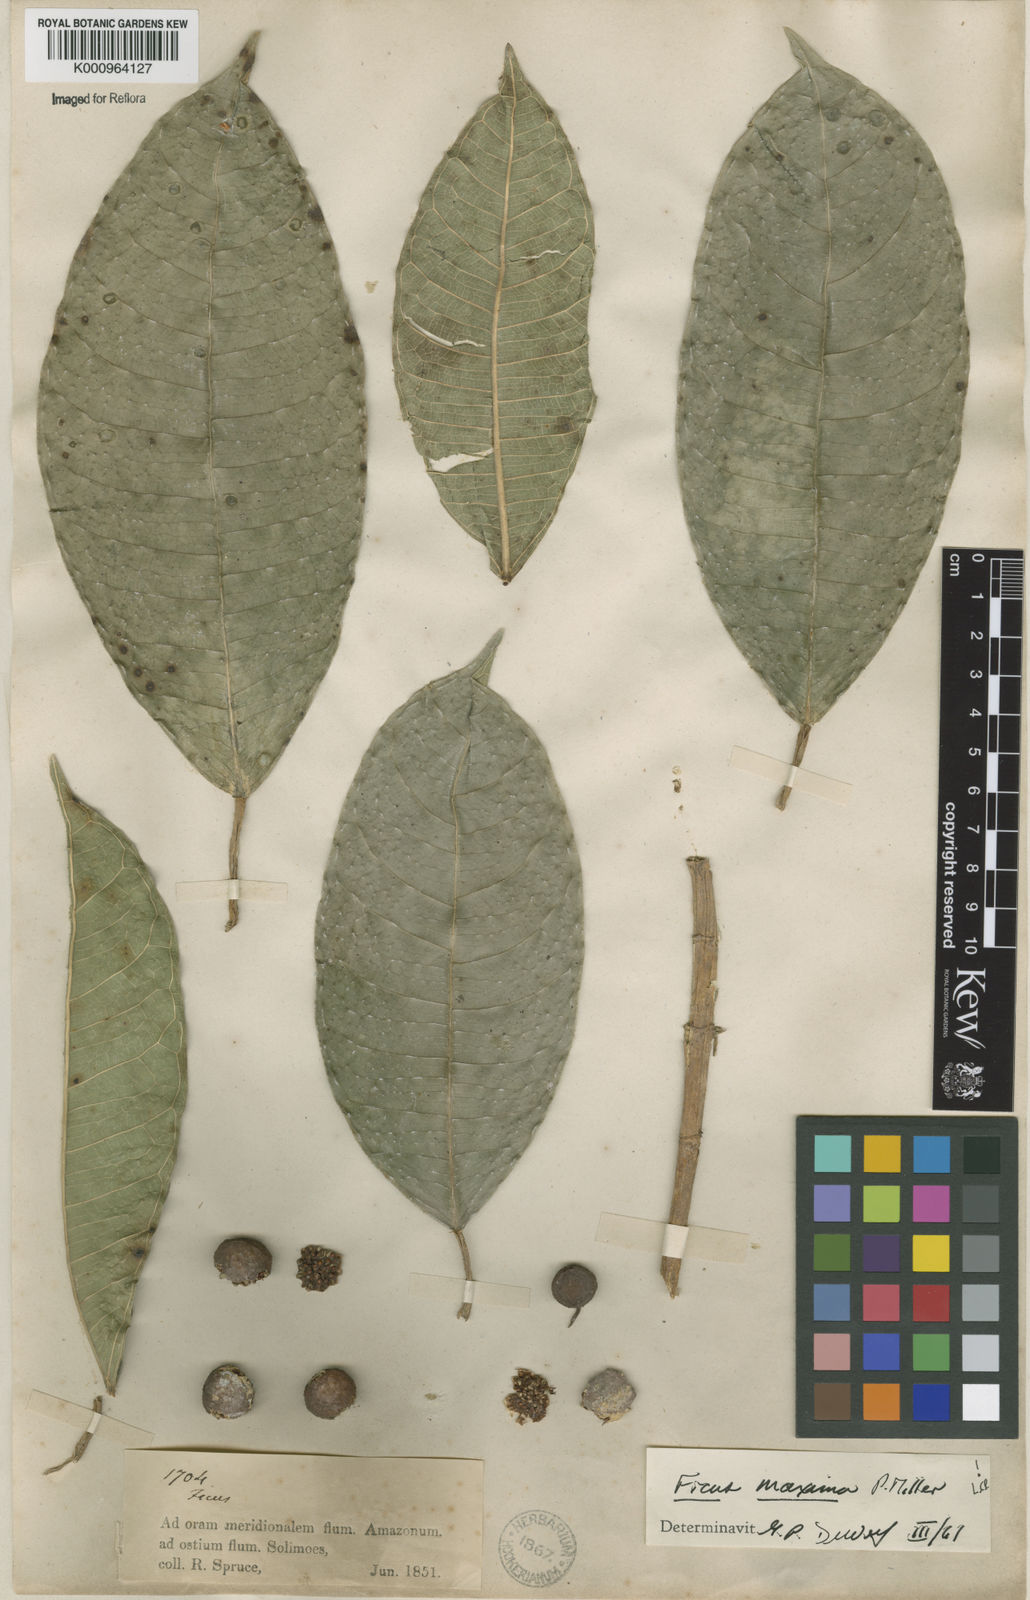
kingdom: Plantae
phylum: Tracheophyta
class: Magnoliopsida
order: Rosales
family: Moraceae
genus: Ficus
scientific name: Ficus maxima
